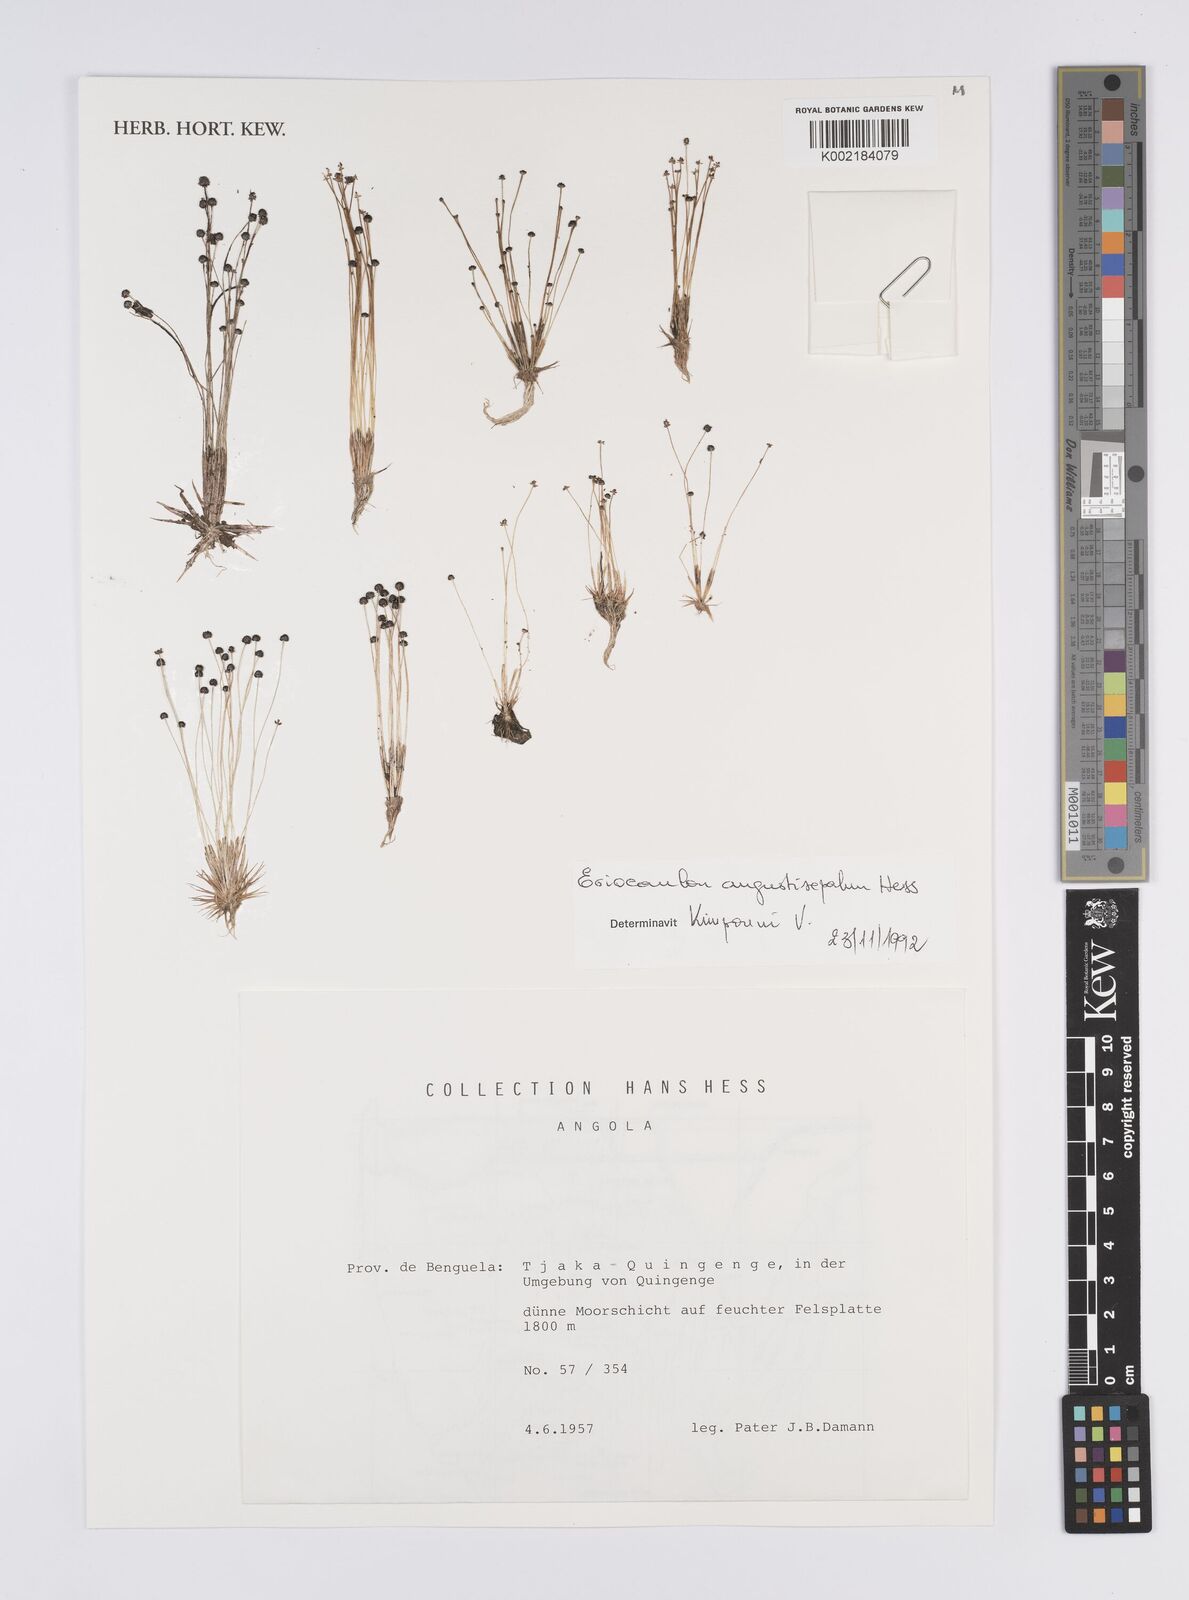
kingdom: Plantae
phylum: Tracheophyta
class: Liliopsida
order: Poales
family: Eriocaulaceae
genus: Eriocaulon
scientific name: Eriocaulon mutatum
